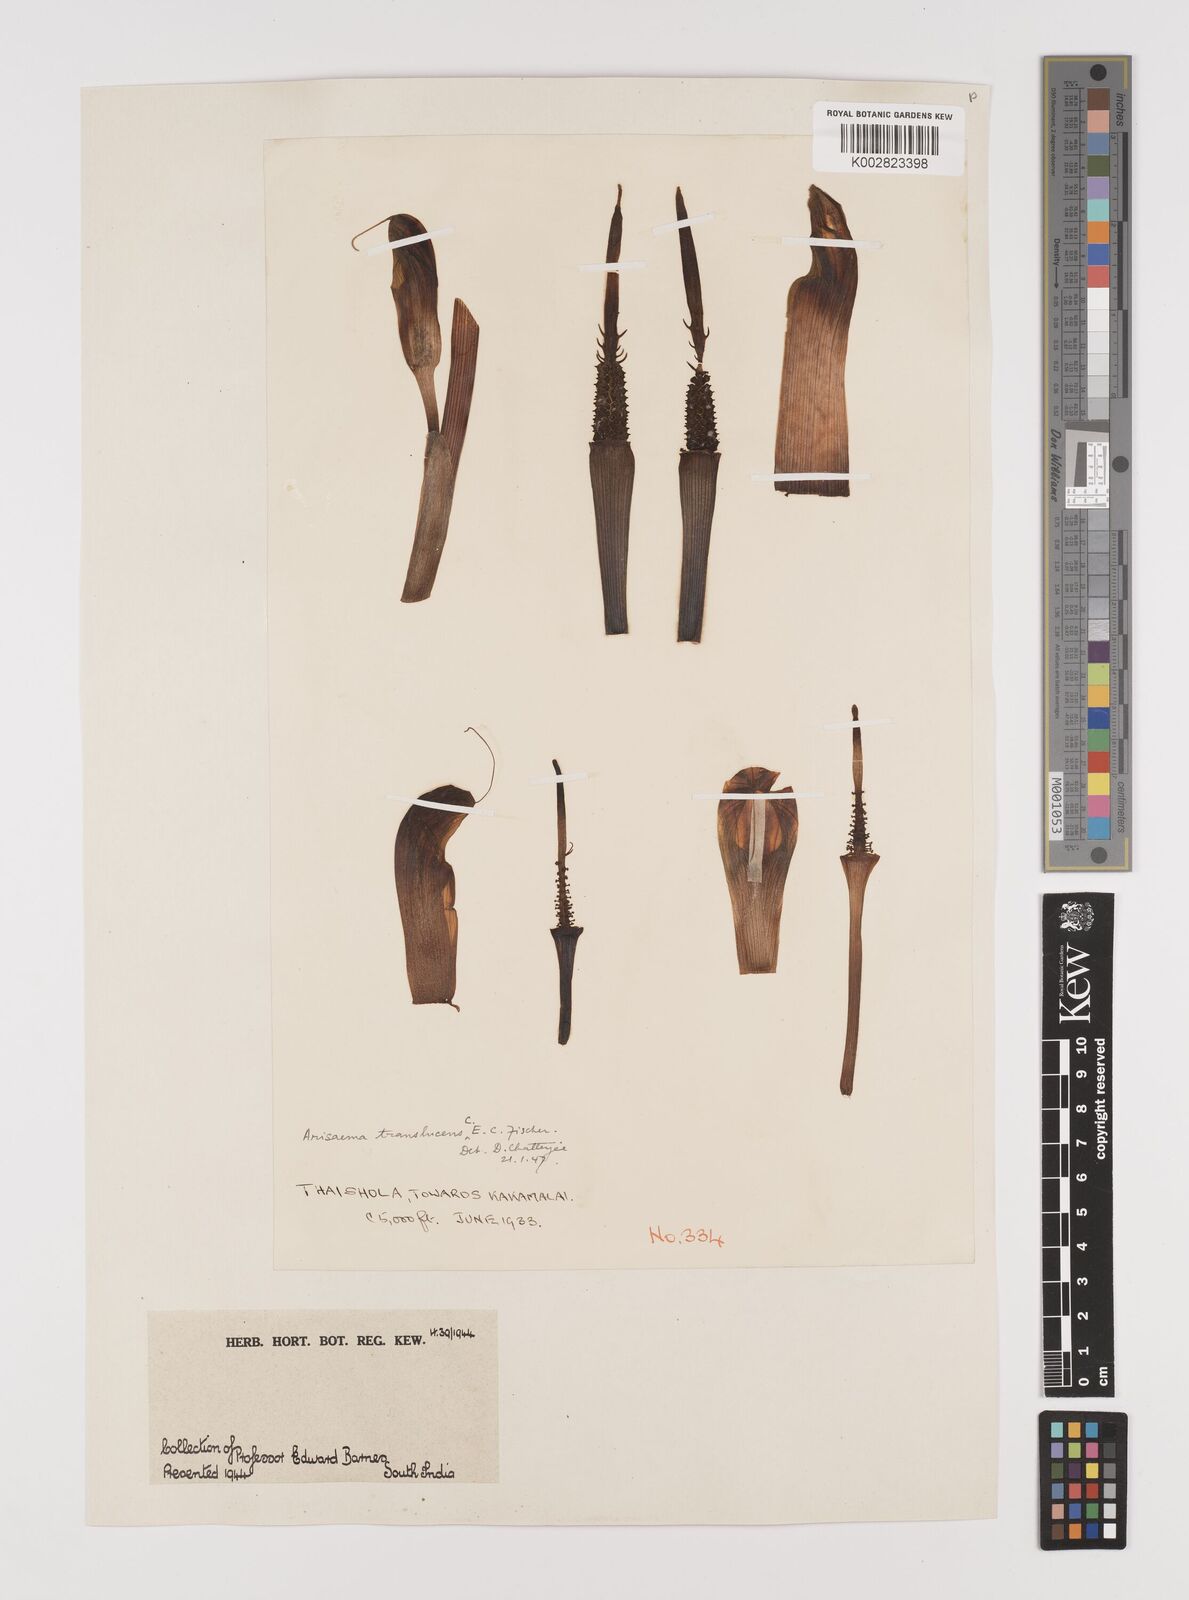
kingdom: Plantae
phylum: Tracheophyta
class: Liliopsida
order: Alismatales
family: Araceae
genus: Arisaema
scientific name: Arisaema translucens
